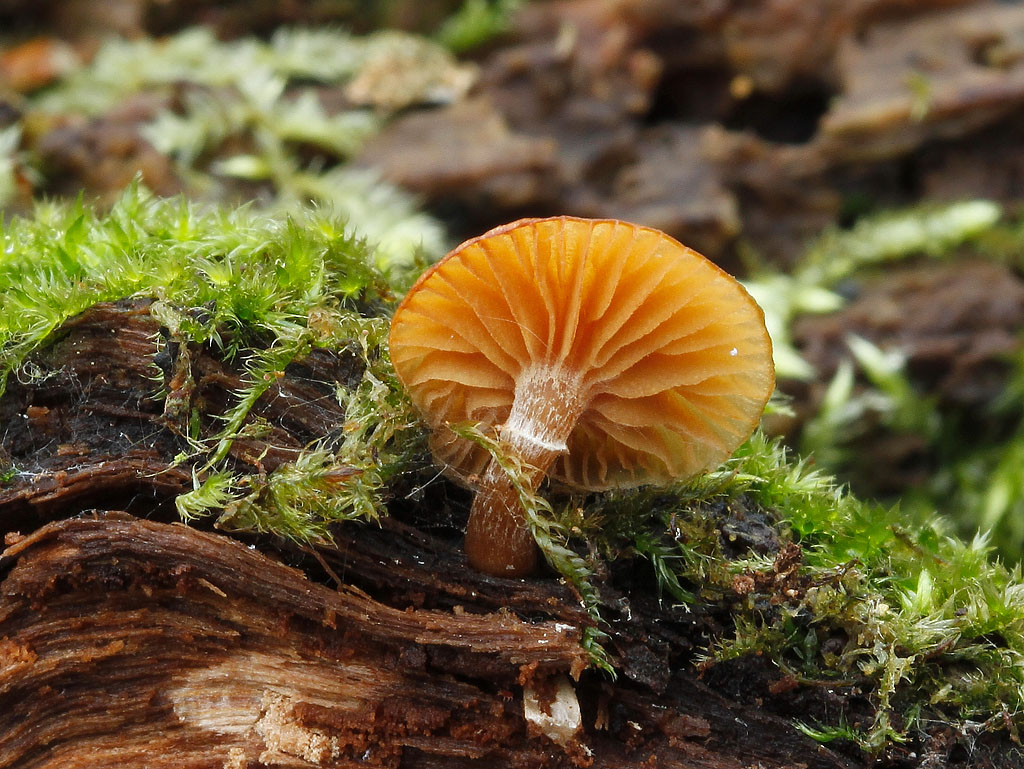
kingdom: Fungi
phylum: Basidiomycota
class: Agaricomycetes
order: Agaricales
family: Hymenogastraceae
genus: Galerina
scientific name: Galerina marginata
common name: randbæltet hjelmhat
